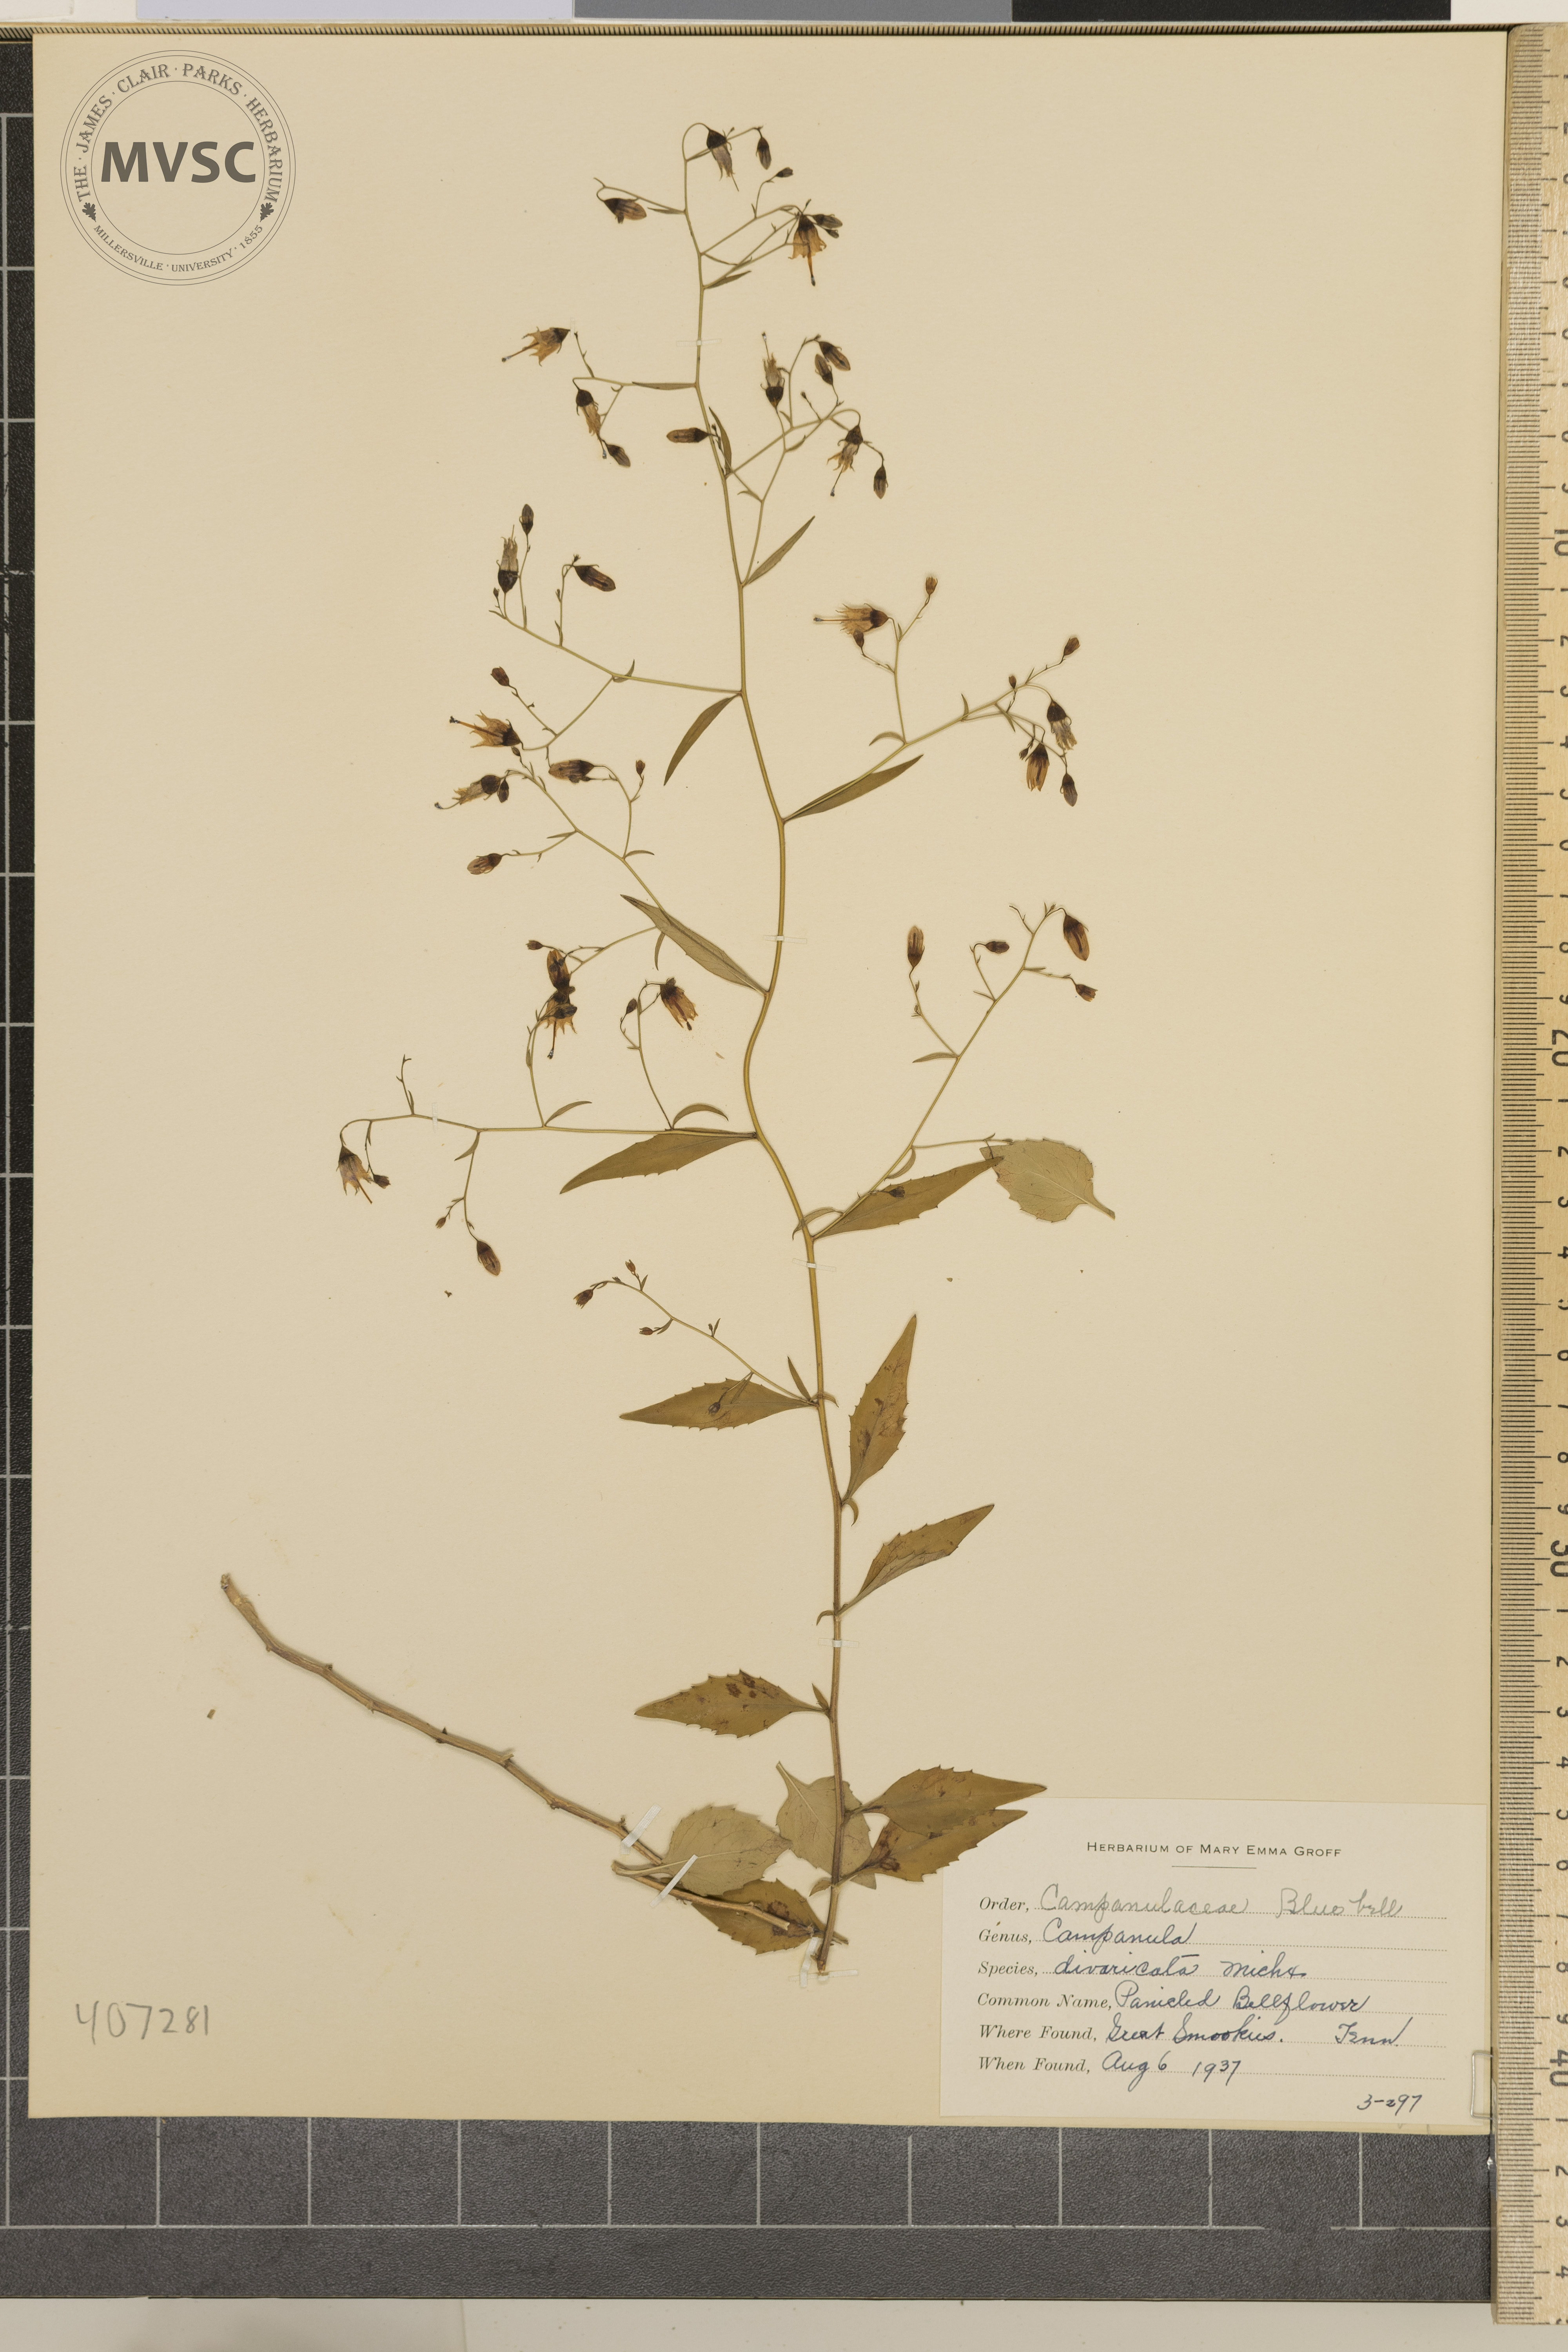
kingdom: Plantae
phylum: Tracheophyta
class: Magnoliopsida
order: Asterales
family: Campanulaceae
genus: Campanula
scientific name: Campanula divaricata
